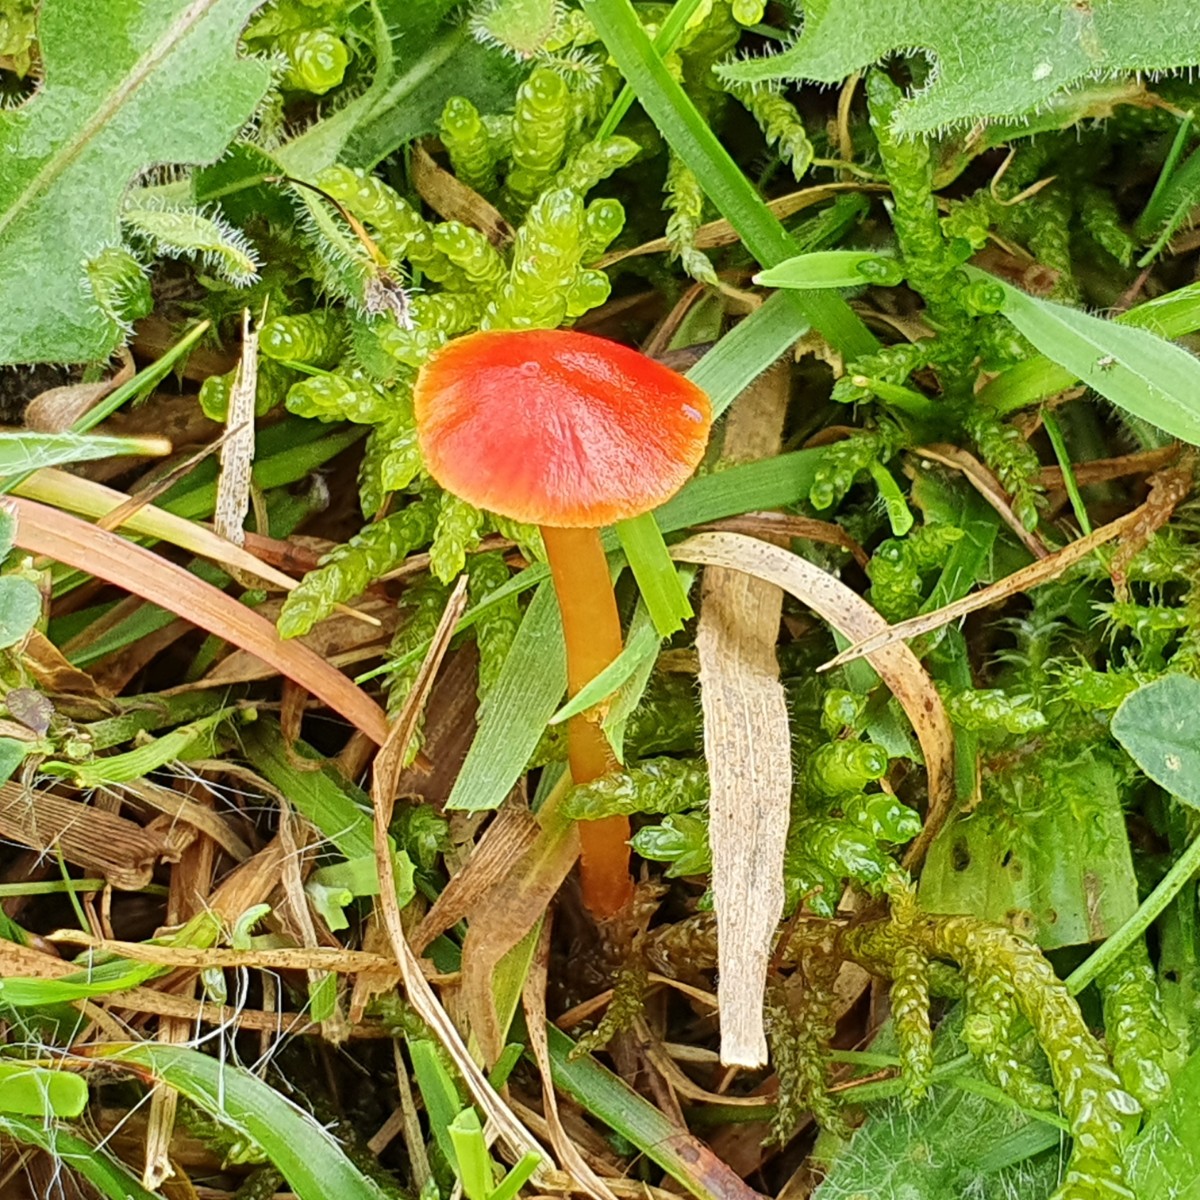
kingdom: Fungi
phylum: Basidiomycota
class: Agaricomycetes
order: Agaricales
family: Hygrophoraceae
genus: Hygrocybe
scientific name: Hygrocybe insipida
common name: liden vokshat
